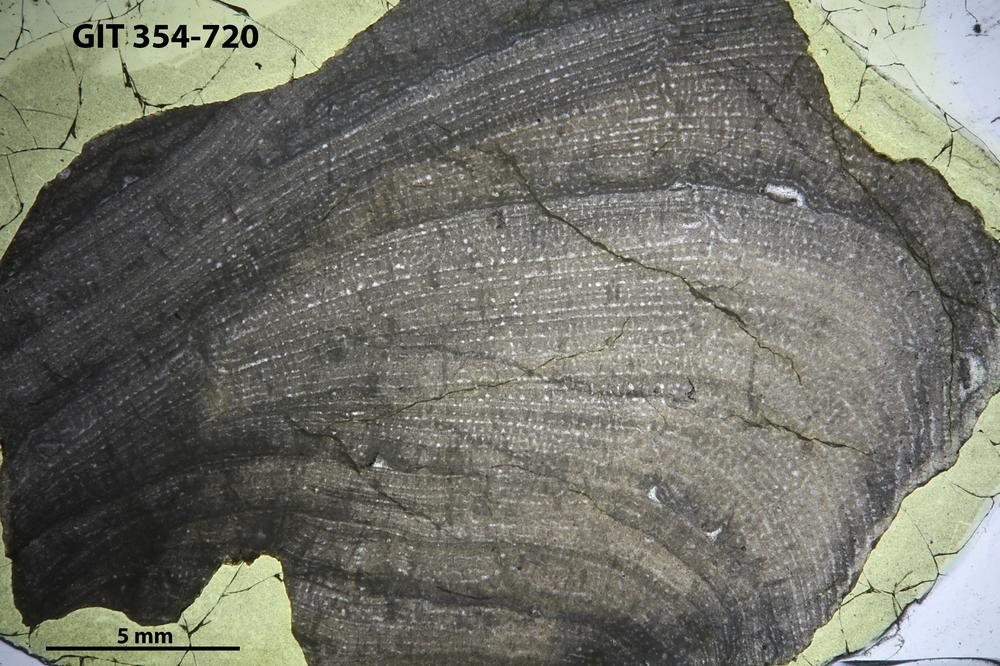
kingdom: Animalia
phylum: Porifera
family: Stromatoporidae
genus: Parallelostroma
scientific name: Parallelostroma
